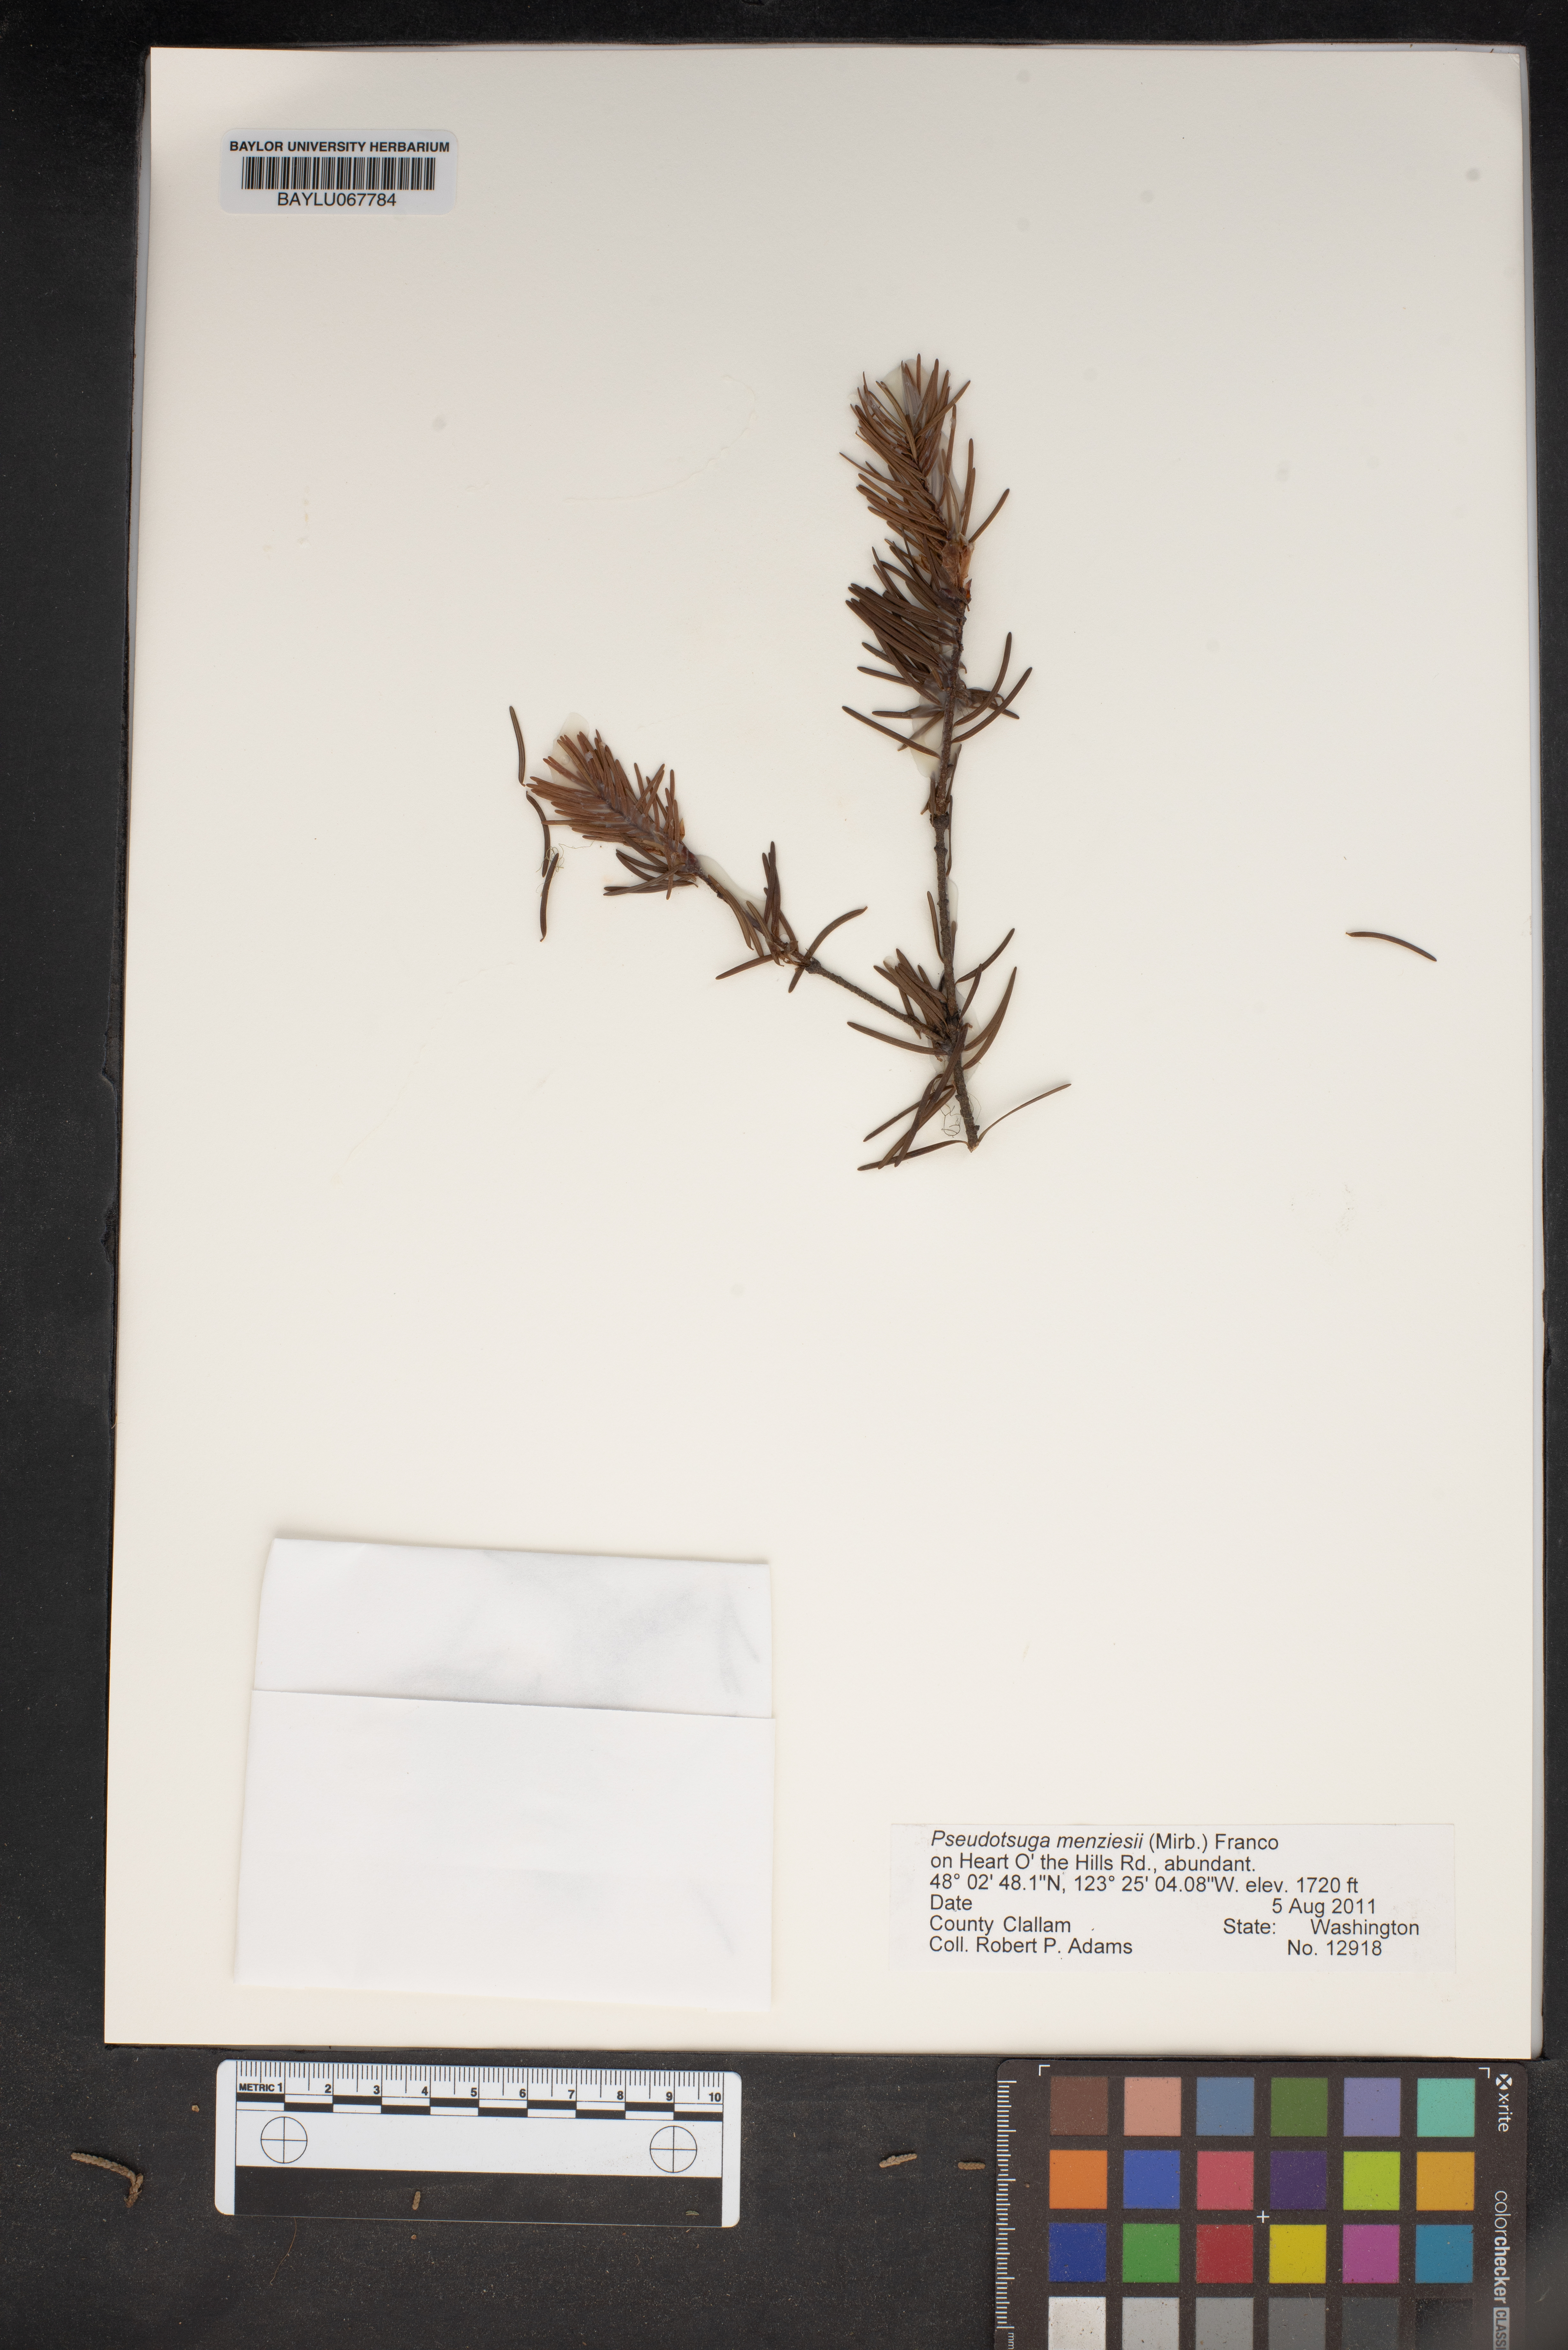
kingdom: Plantae
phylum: Tracheophyta
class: Pinopsida
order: Pinales
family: Pinaceae
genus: Pseudotsuga
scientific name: Pseudotsuga menziesii
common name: Douglas fir
